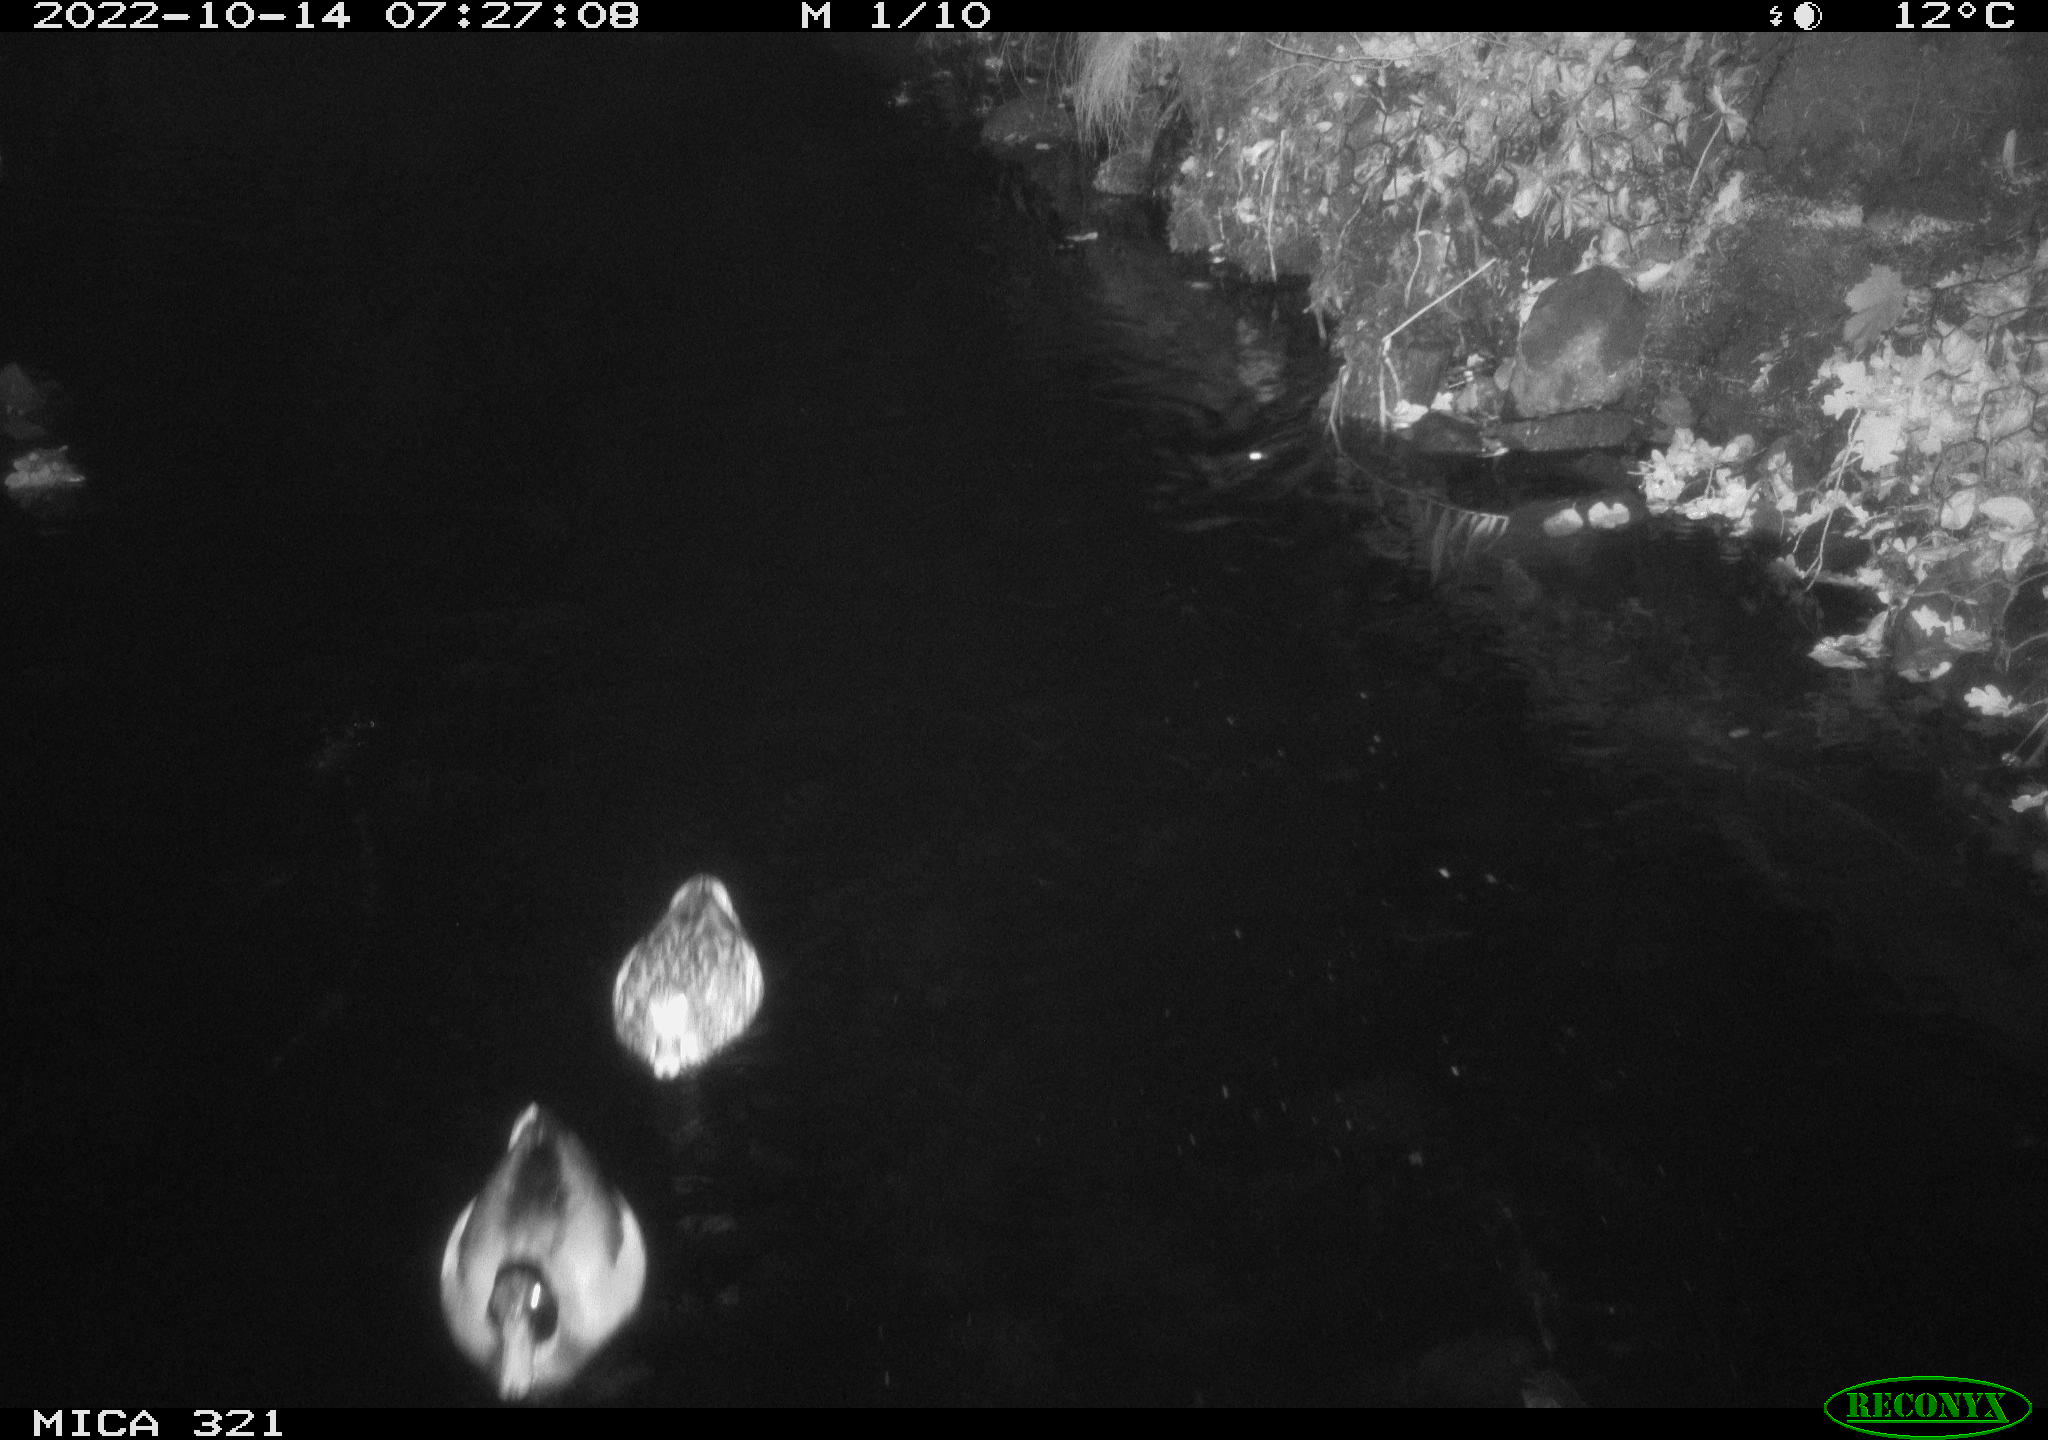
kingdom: Animalia
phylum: Chordata
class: Aves
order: Anseriformes
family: Anatidae
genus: Anas
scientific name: Anas
